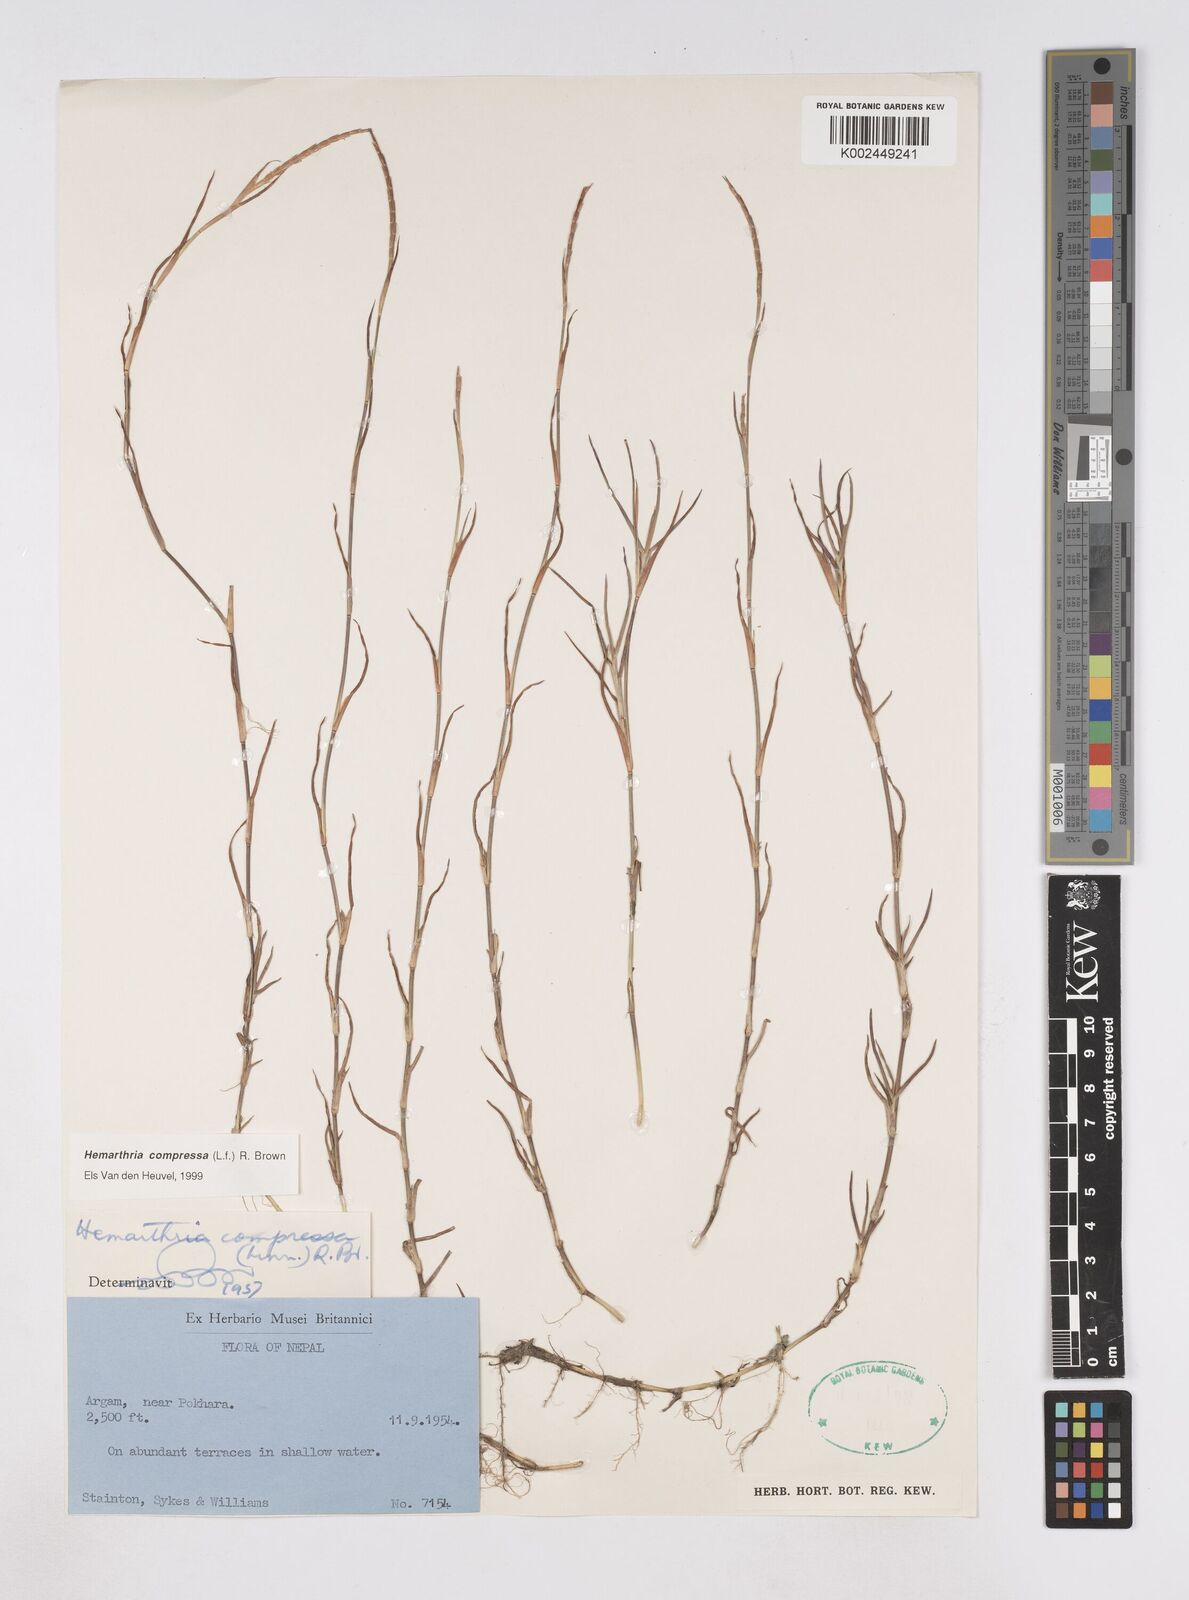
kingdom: Plantae
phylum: Tracheophyta
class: Liliopsida
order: Poales
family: Poaceae
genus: Hemarthria
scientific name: Hemarthria compressa
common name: Whip grass
